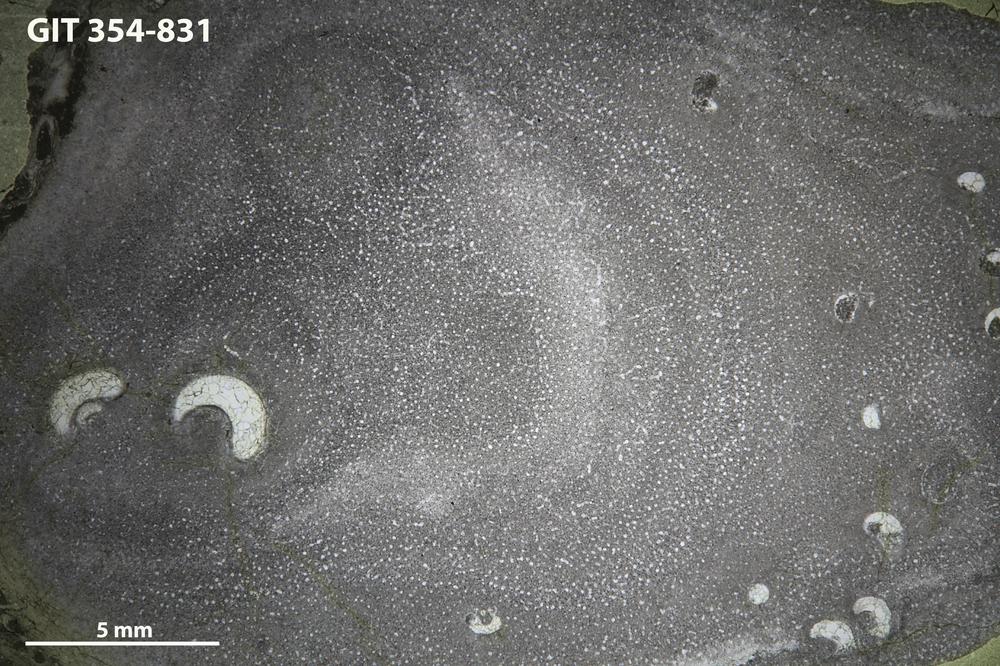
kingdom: Animalia
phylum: Porifera
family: Densastromatidae
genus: Actinostromella
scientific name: Actinostromella
